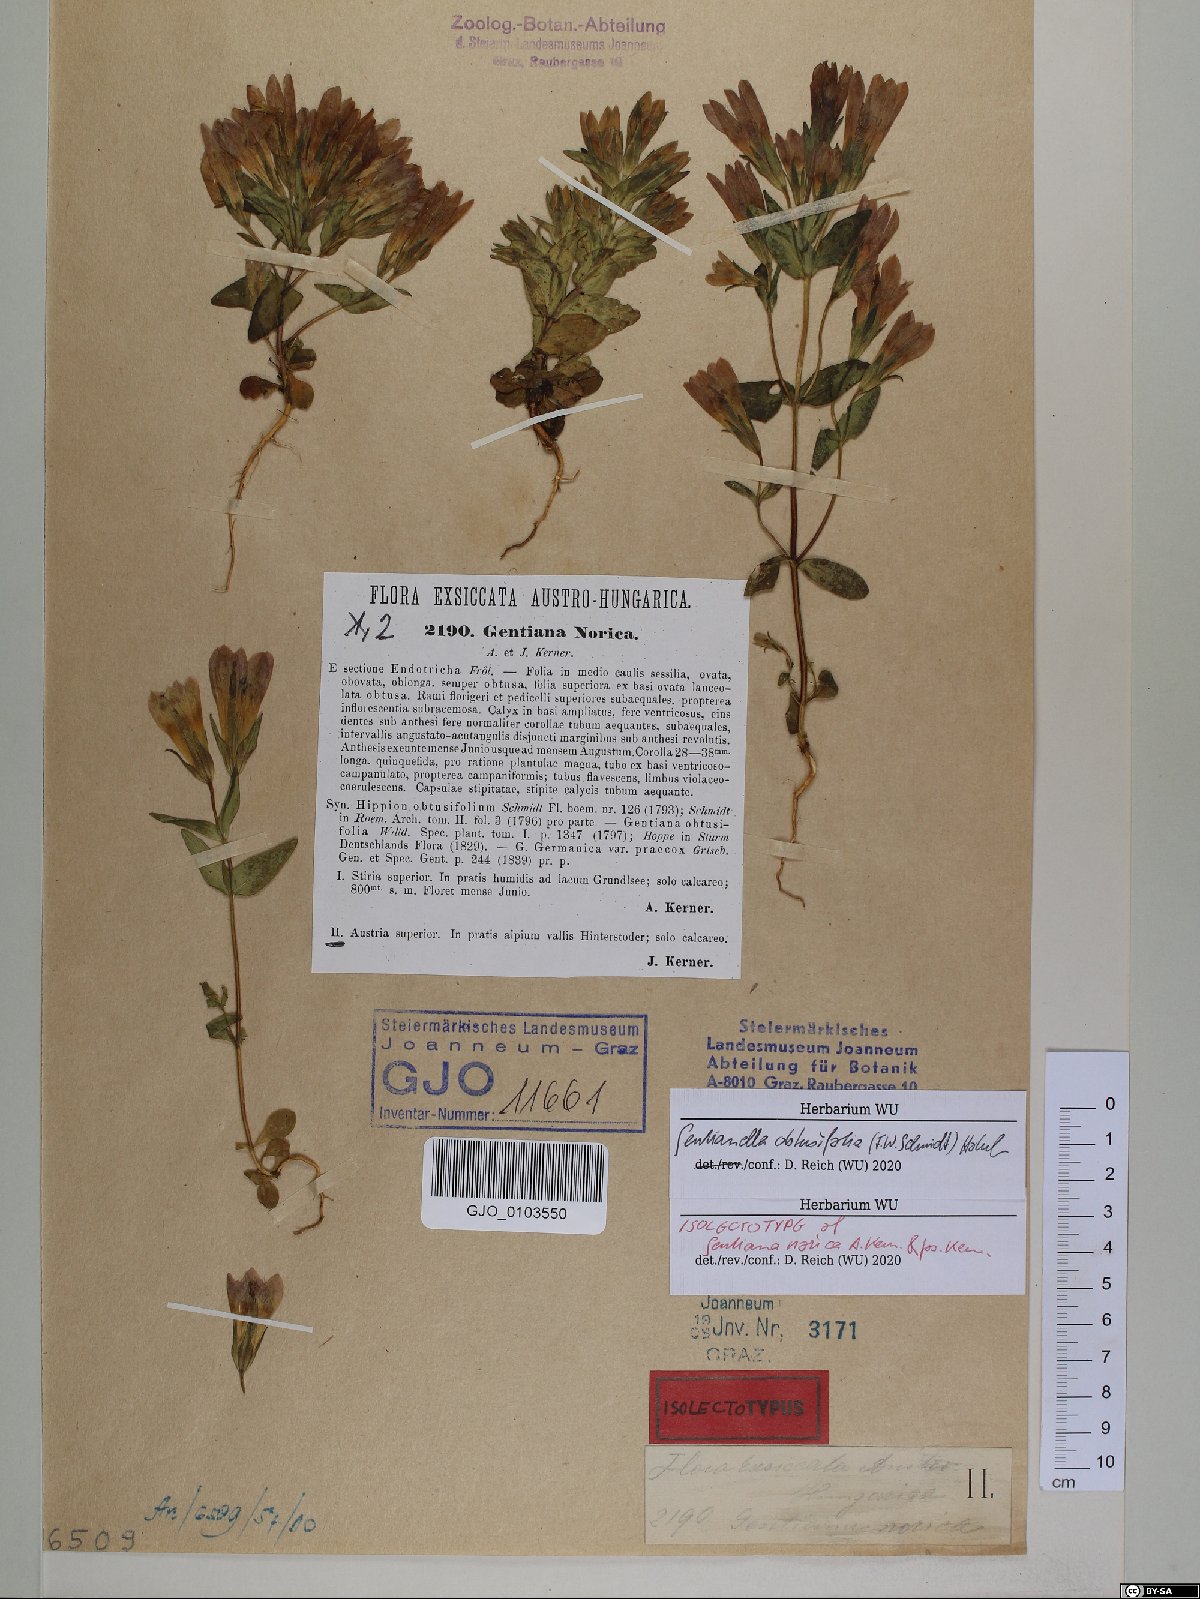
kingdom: Plantae
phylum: Tracheophyta
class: Magnoliopsida
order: Gentianales
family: Gentianaceae
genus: Gentianella
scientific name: Gentianella obtusifolia
